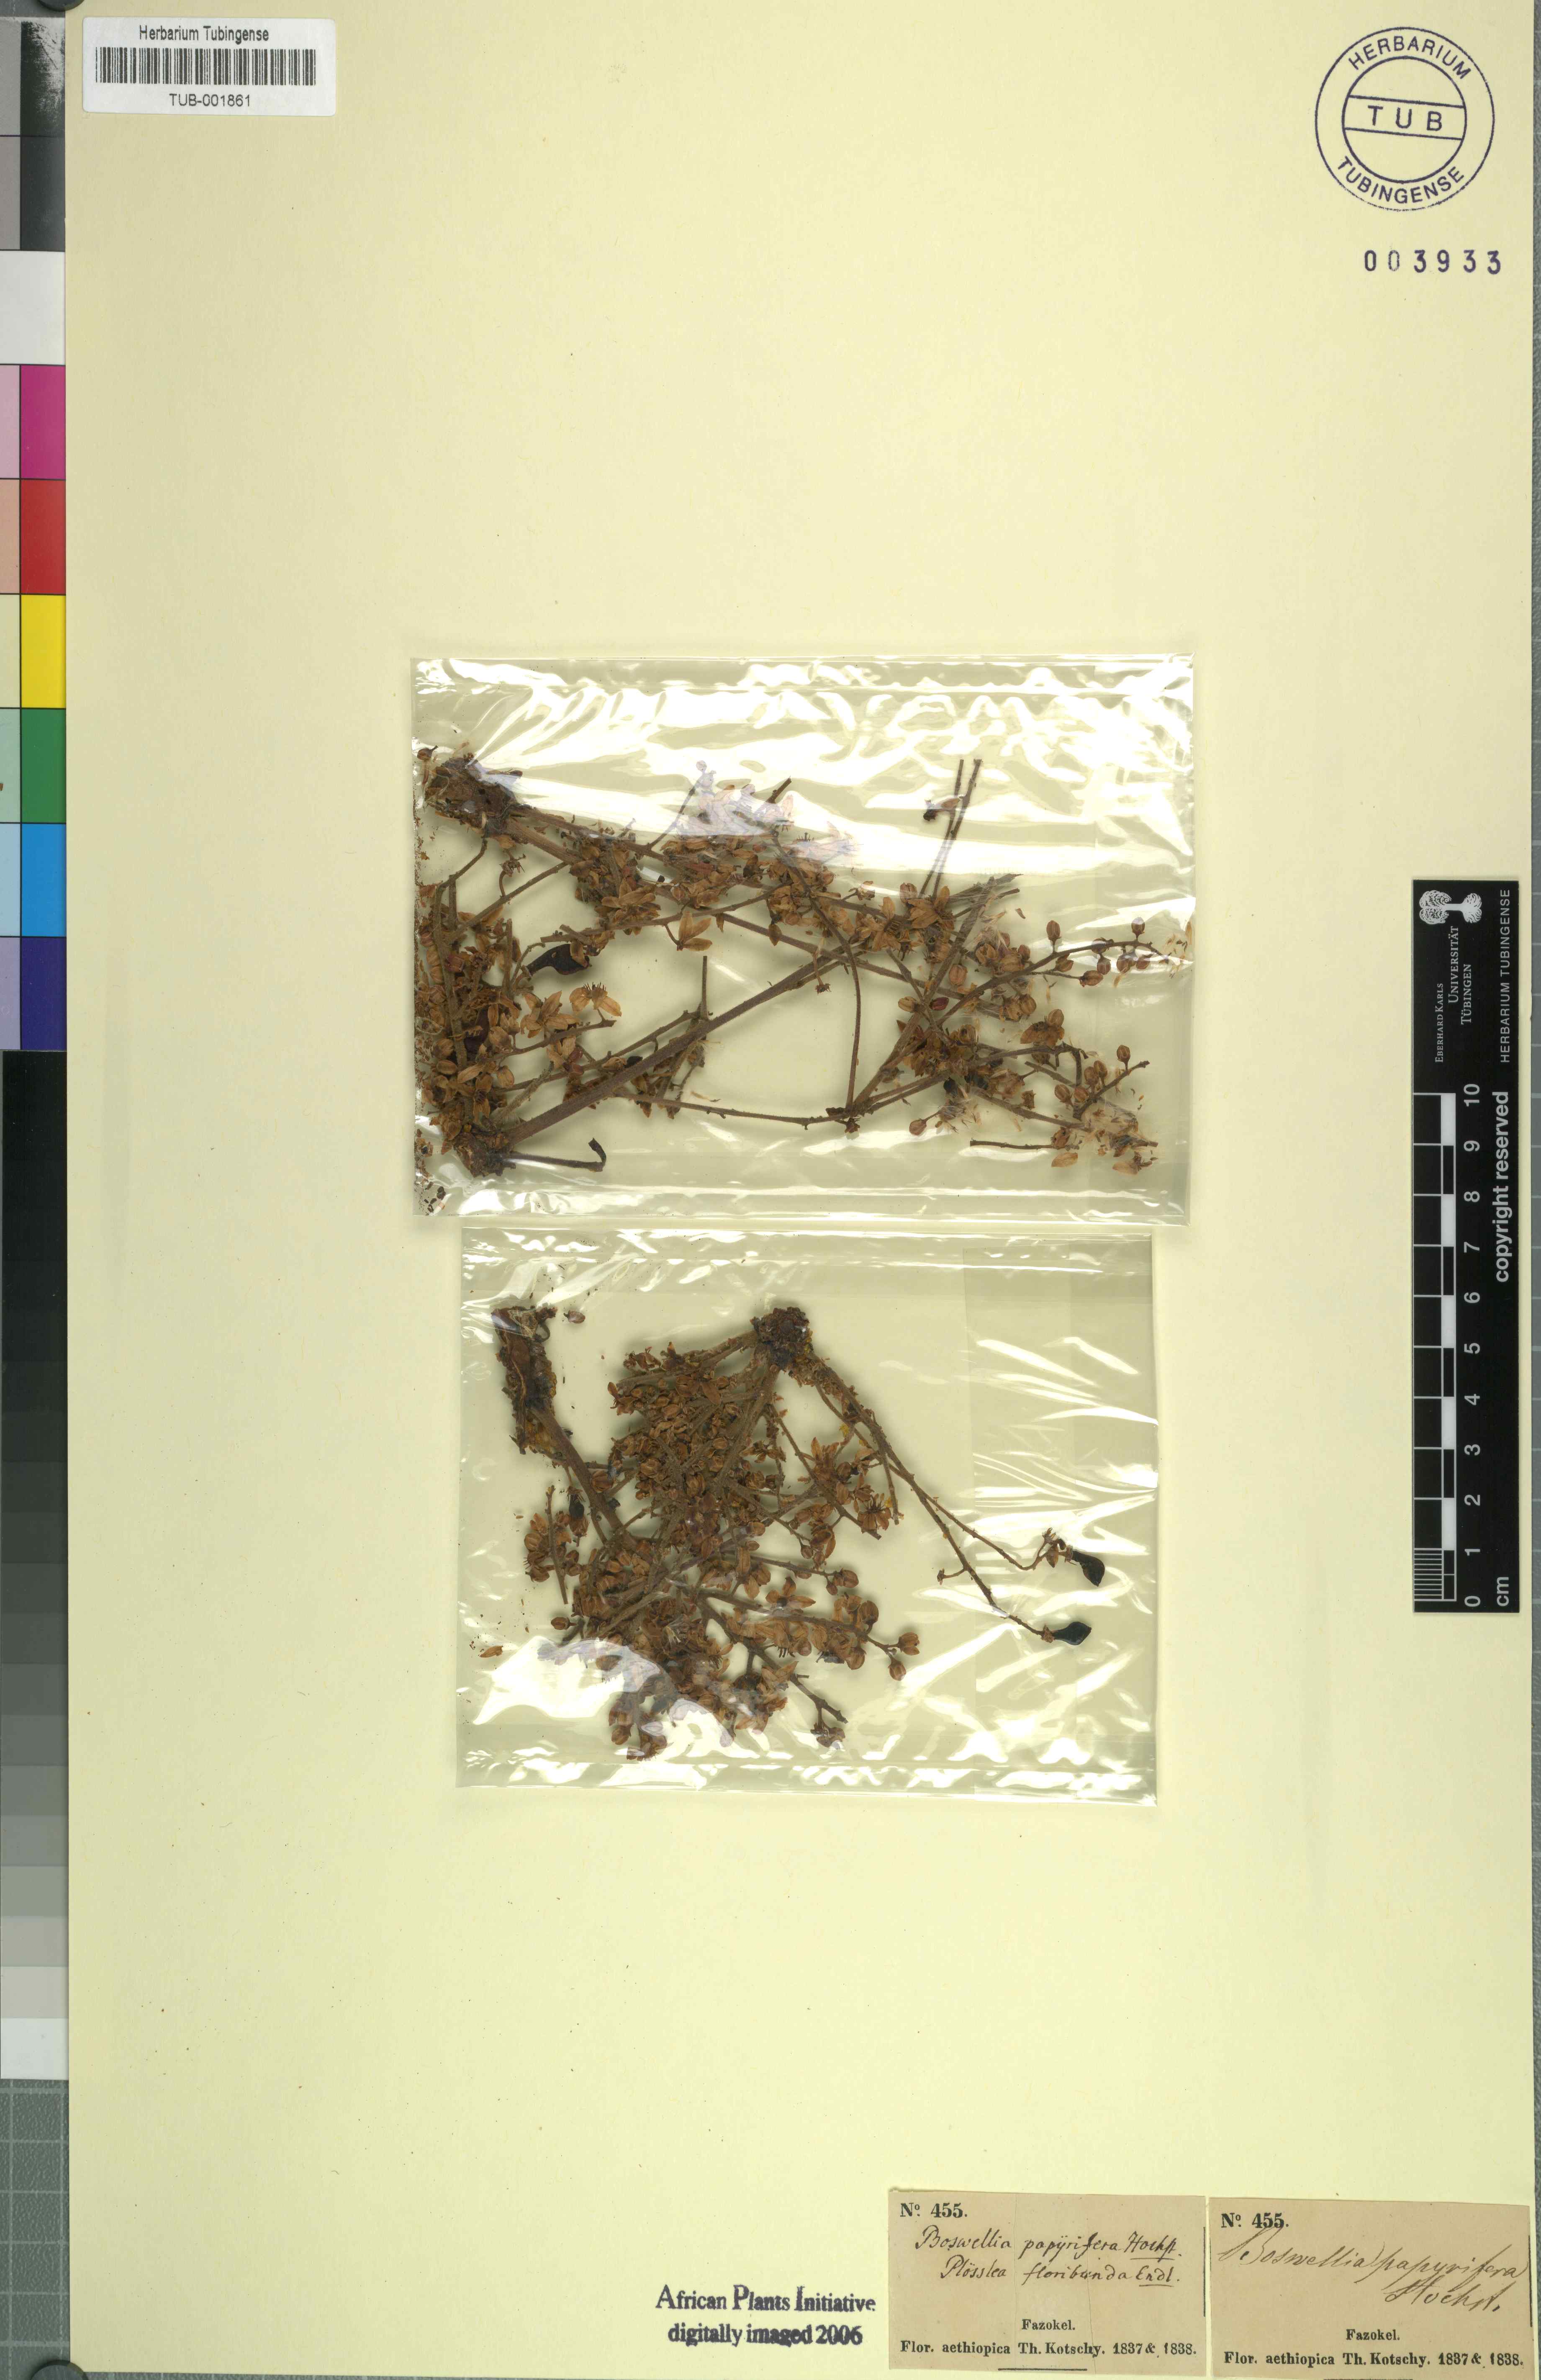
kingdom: Plantae
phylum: Tracheophyta
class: Magnoliopsida
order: Sapindales
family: Burseraceae
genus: Boswellia
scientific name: Boswellia papyrifera
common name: Sudanese frankincense
